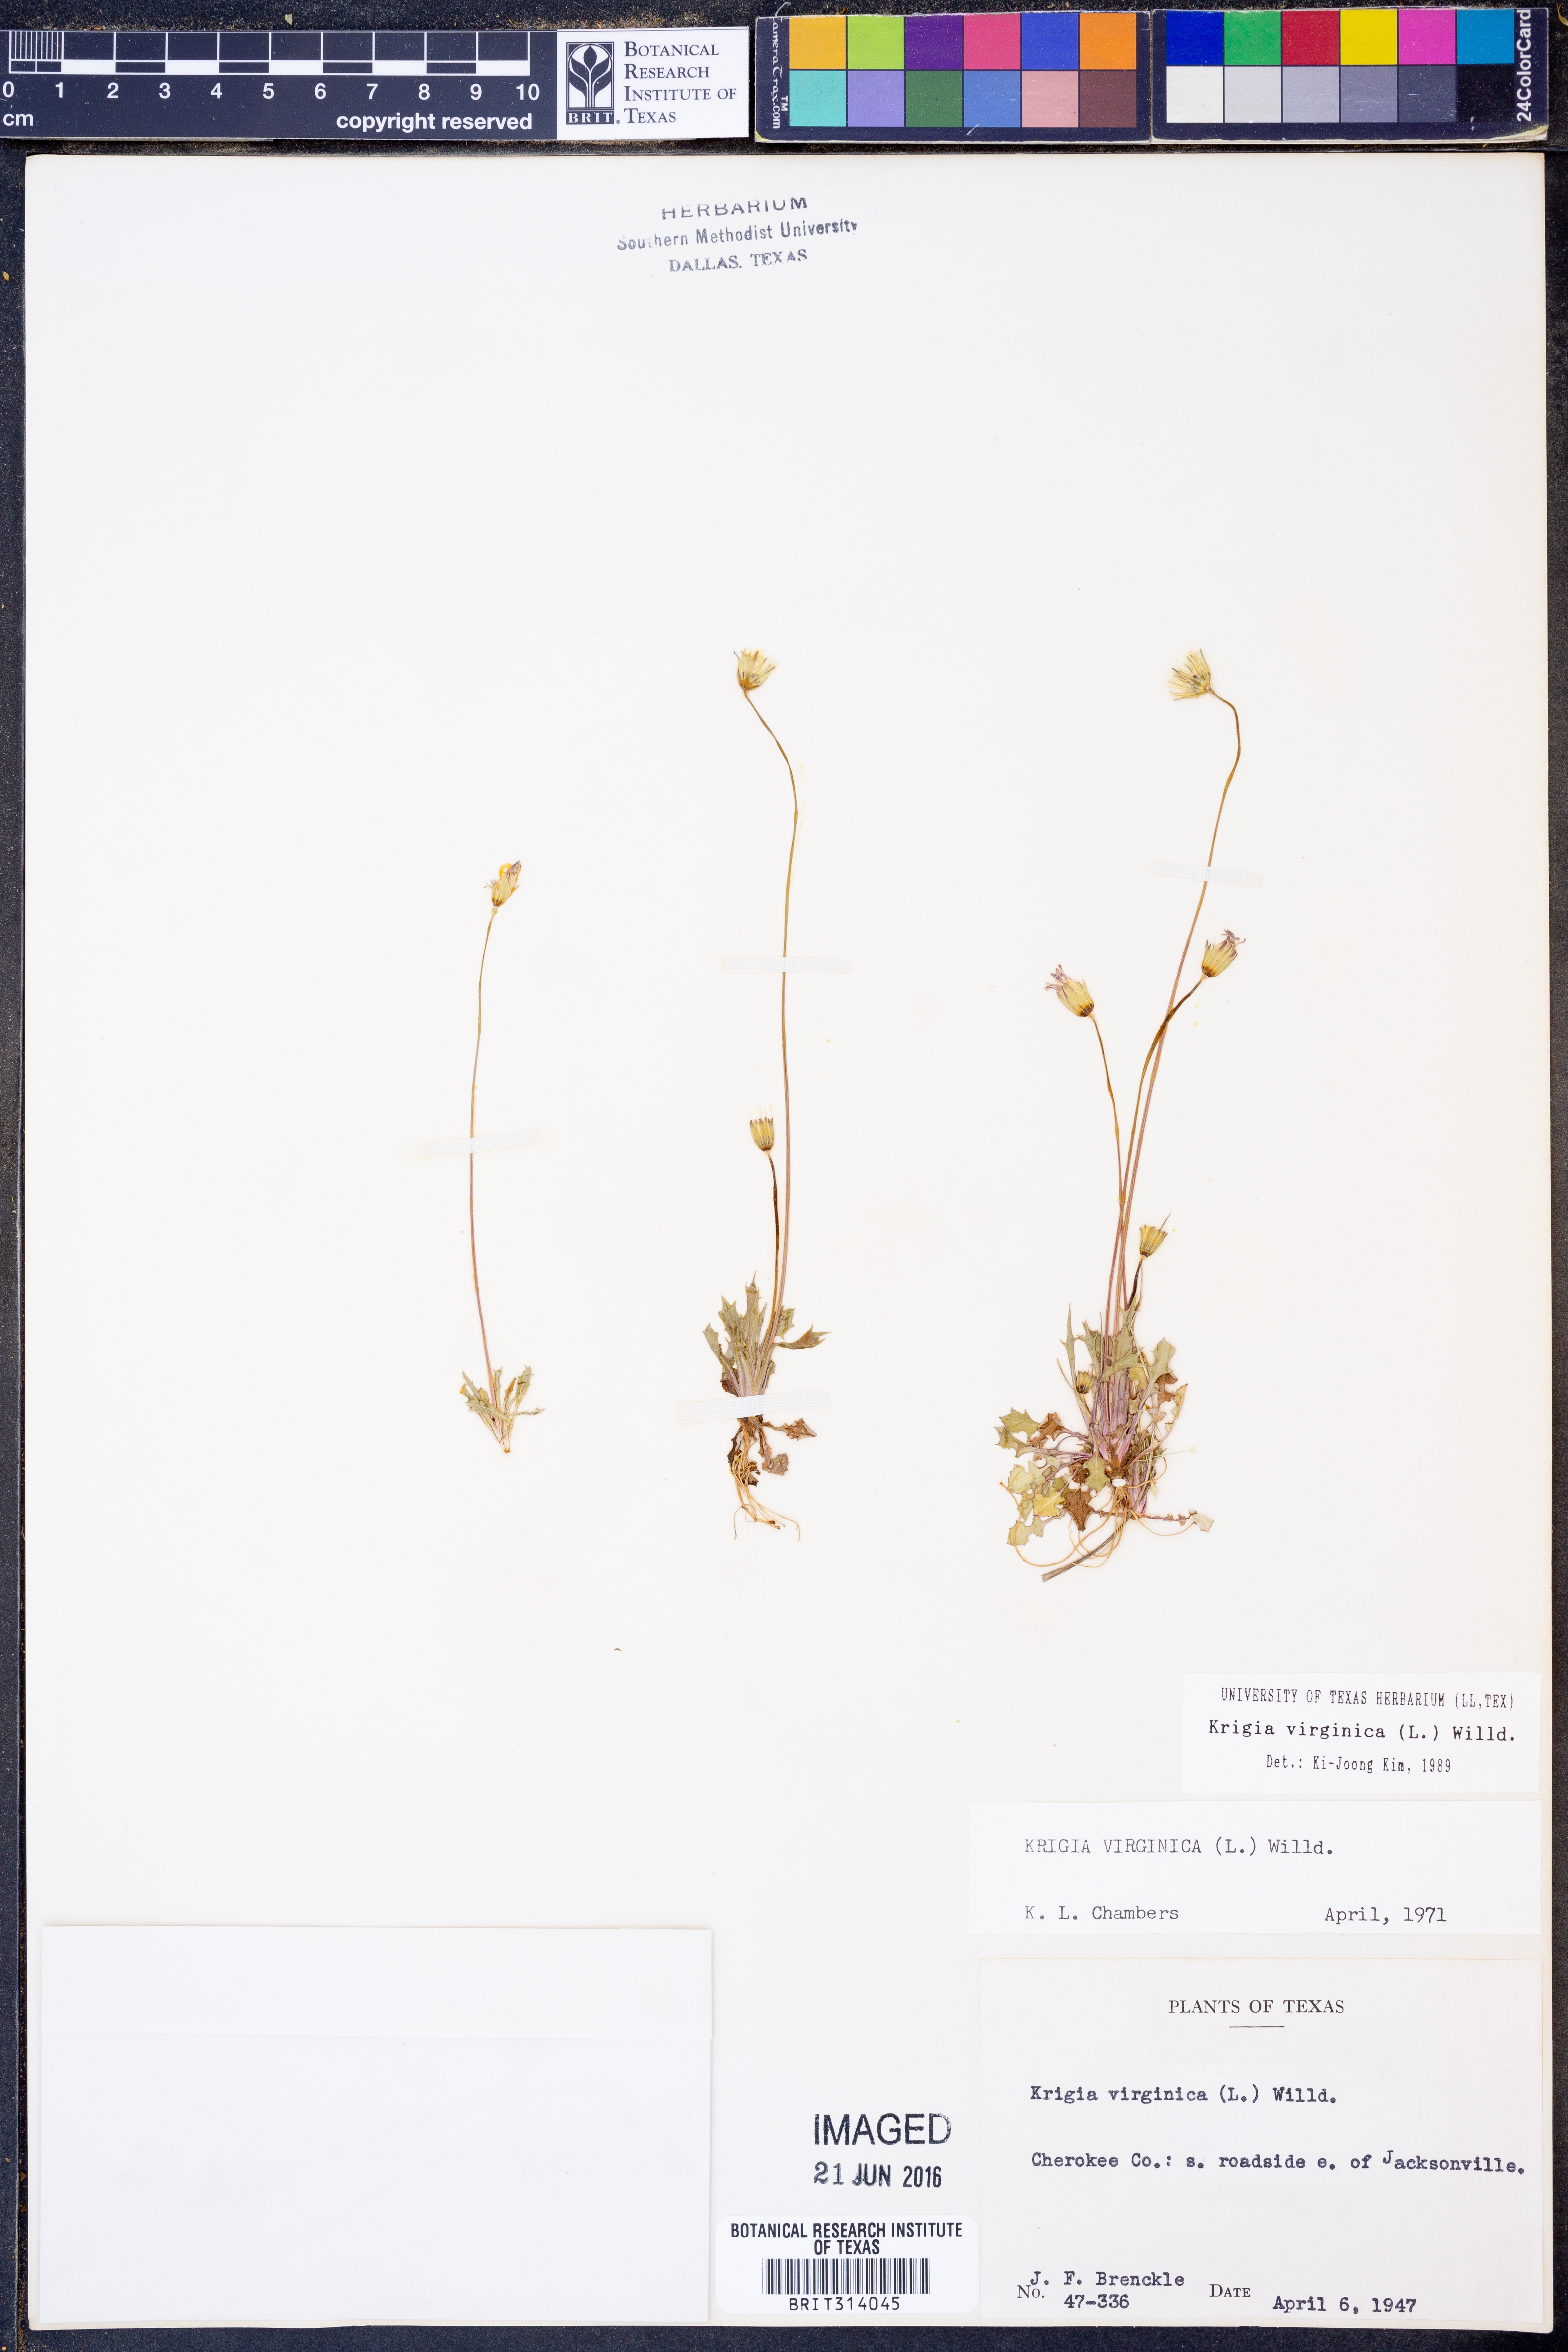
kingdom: Plantae
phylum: Tracheophyta
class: Magnoliopsida
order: Asterales
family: Asteraceae
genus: Krigia
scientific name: Krigia virginica
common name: Virginia dwarf-dandelion
